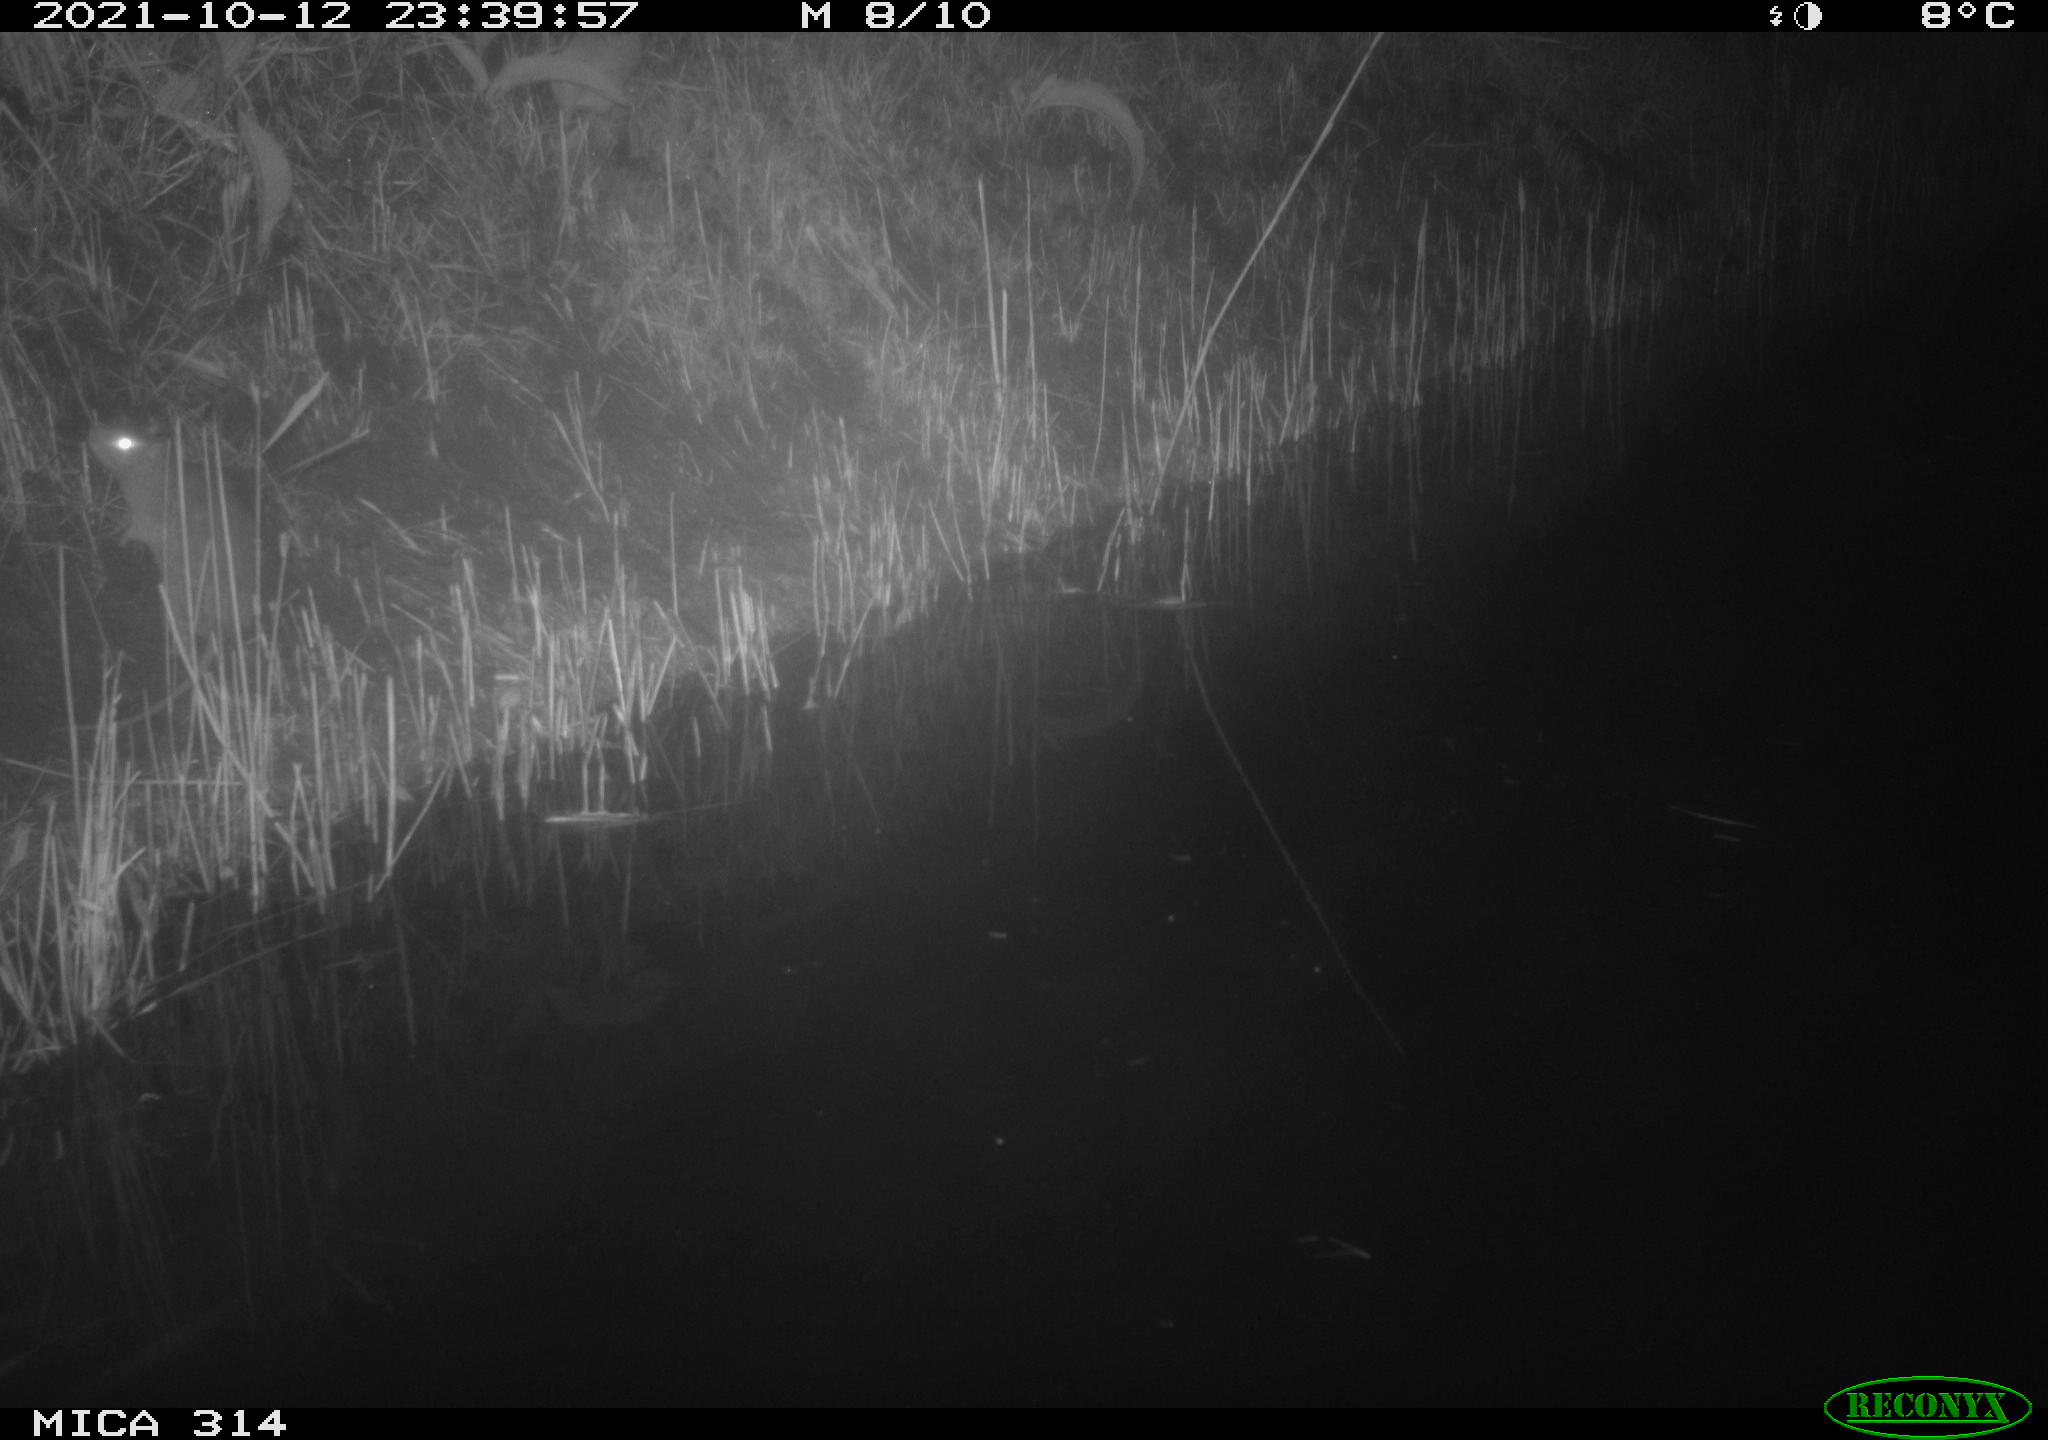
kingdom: Animalia
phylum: Chordata
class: Mammalia
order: Rodentia
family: Muridae
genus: Rattus
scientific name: Rattus norvegicus
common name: Brown rat
